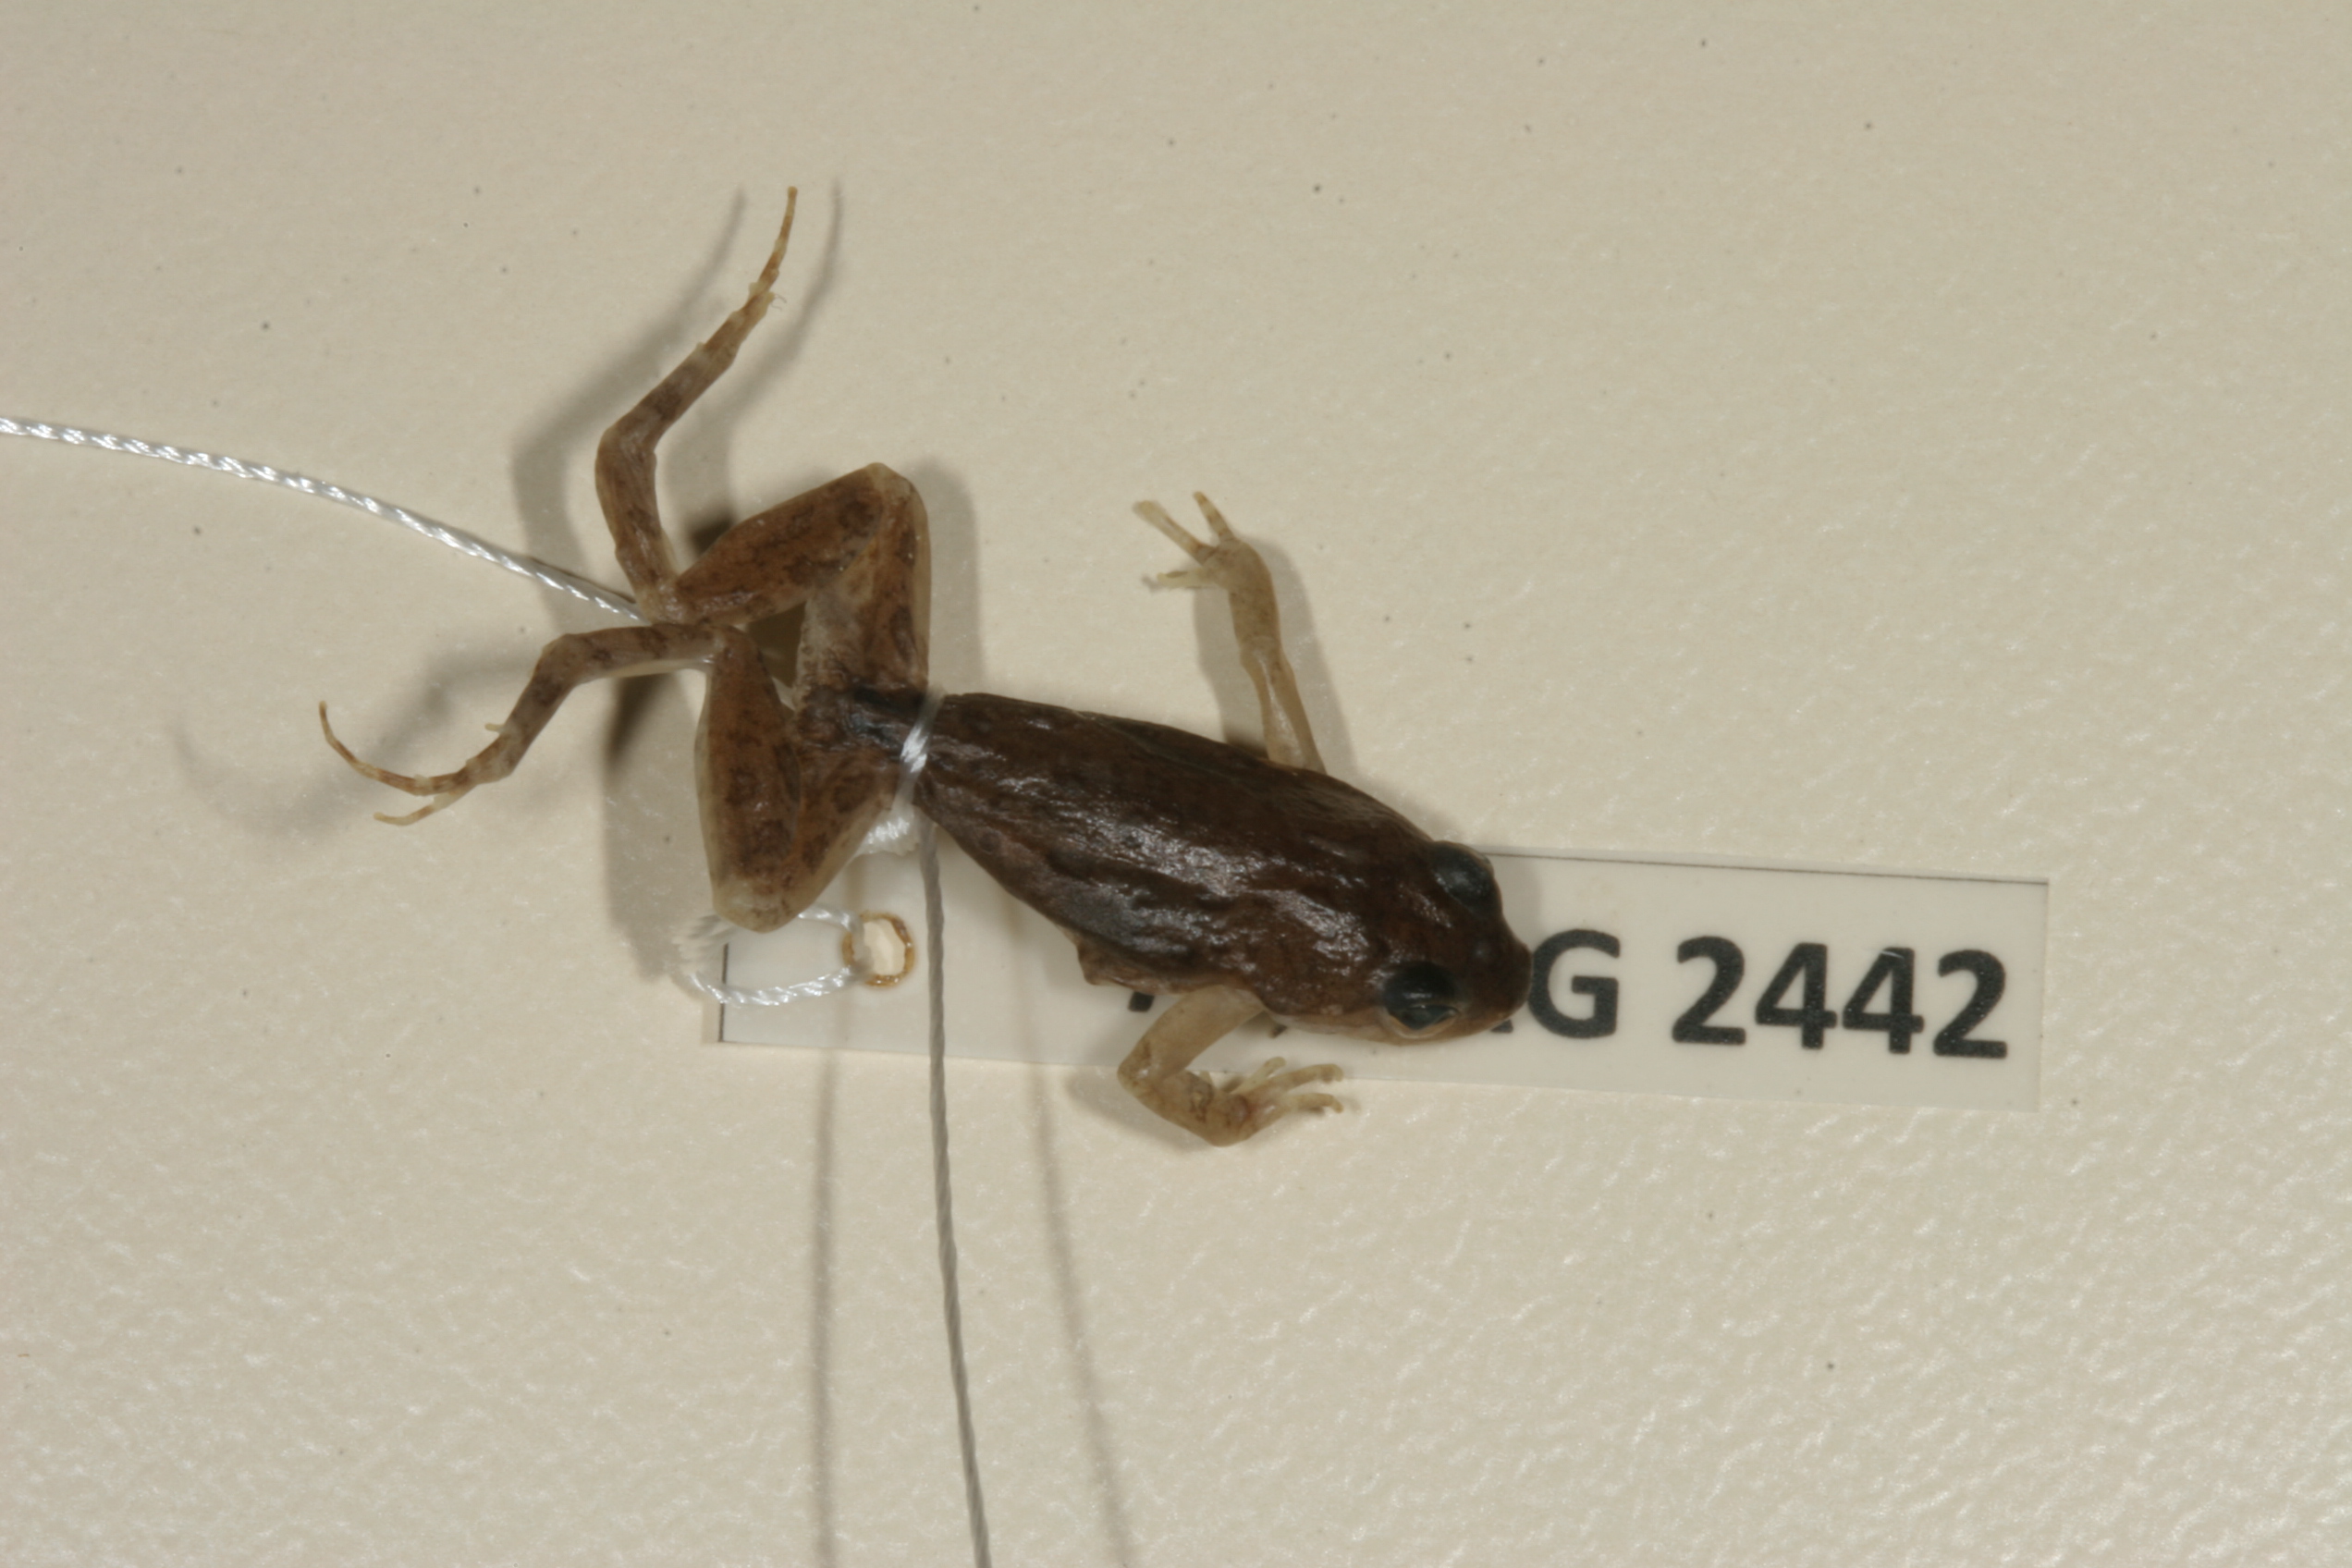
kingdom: Animalia
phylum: Chordata
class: Amphibia
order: Anura
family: Pyxicephalidae
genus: Cacosternum
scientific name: Cacosternum boettgeri
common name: Boettger's frog
